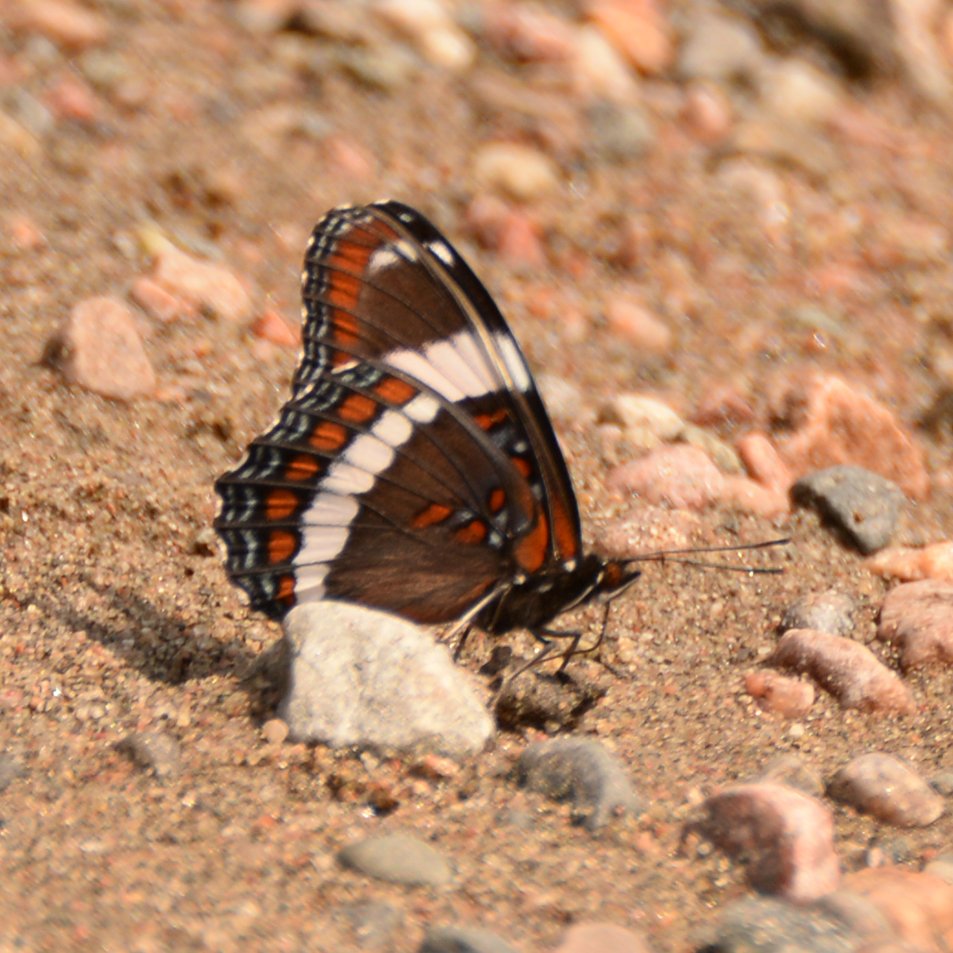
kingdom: Animalia
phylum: Arthropoda
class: Insecta
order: Lepidoptera
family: Nymphalidae
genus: Limenitis
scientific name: Limenitis arthemis
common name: Red-spotted Admiral
